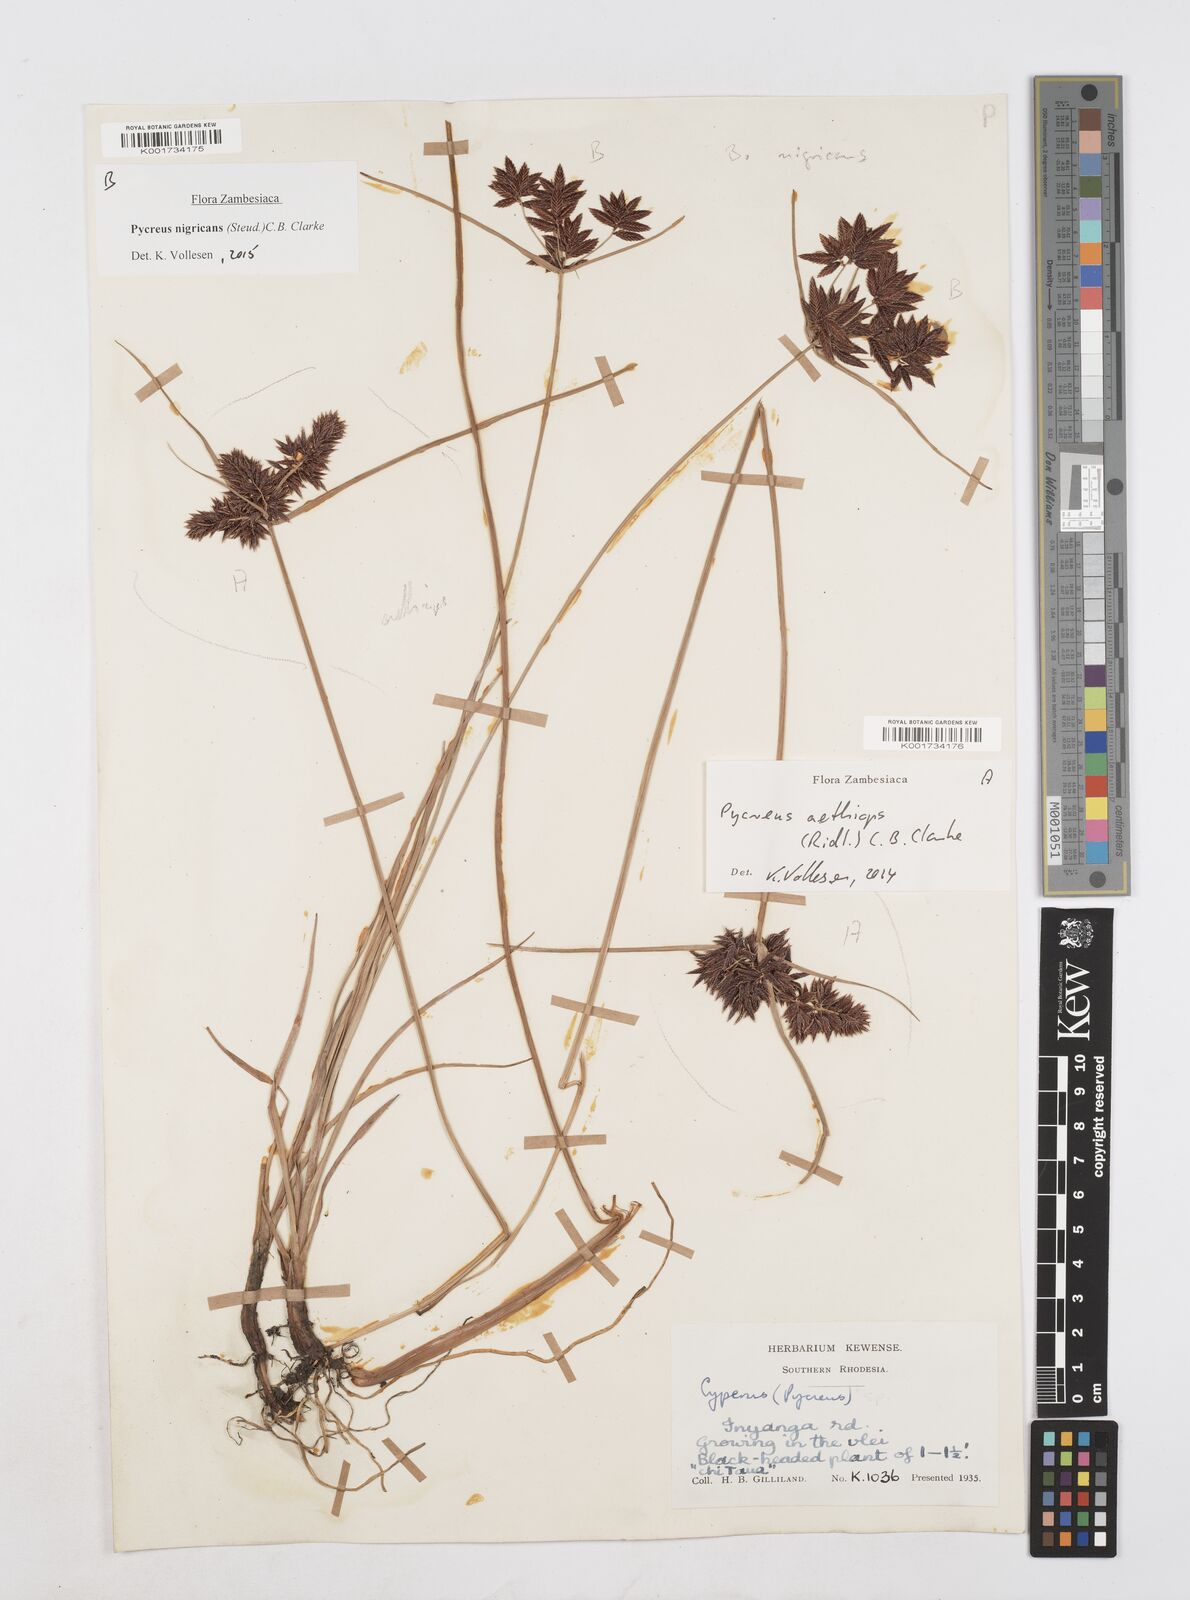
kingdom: Plantae
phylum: Tracheophyta
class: Liliopsida
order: Poales
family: Cyperaceae
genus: Cyperus
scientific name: Cyperus nigricans
